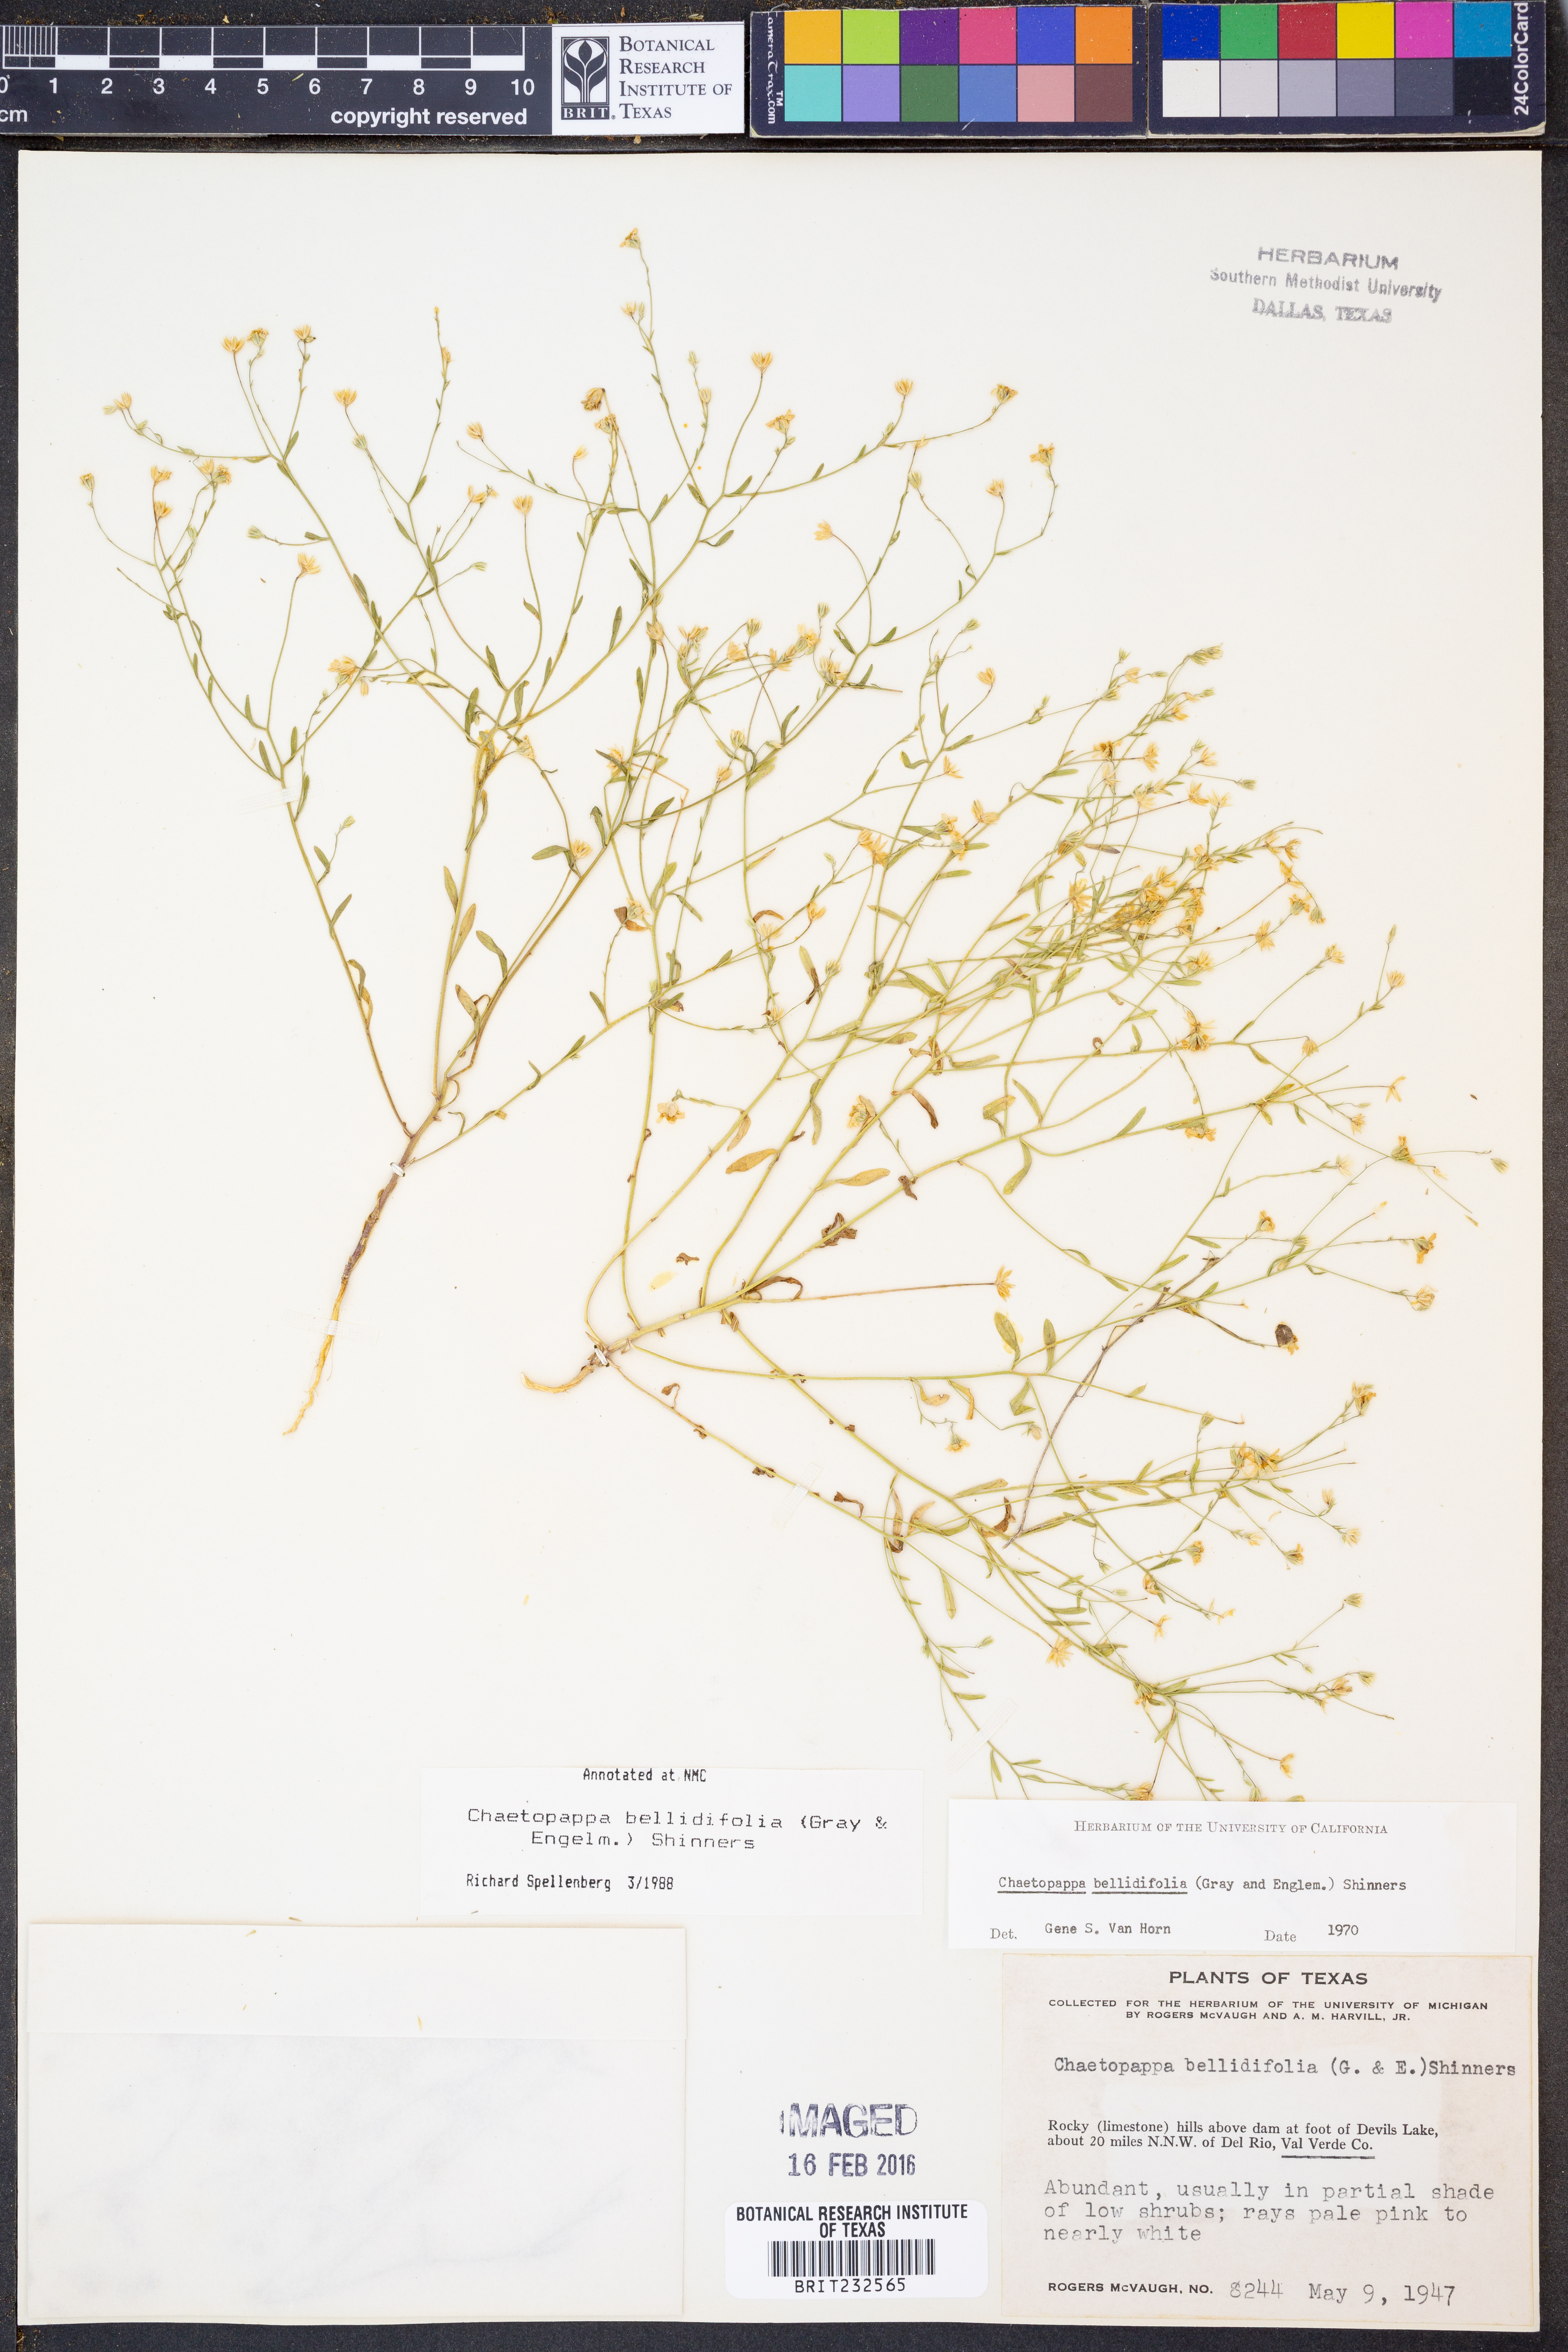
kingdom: Plantae
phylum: Tracheophyta
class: Magnoliopsida
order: Asterales
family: Asteraceae
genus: Chaetopappa
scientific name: Chaetopappa bellidifolia
